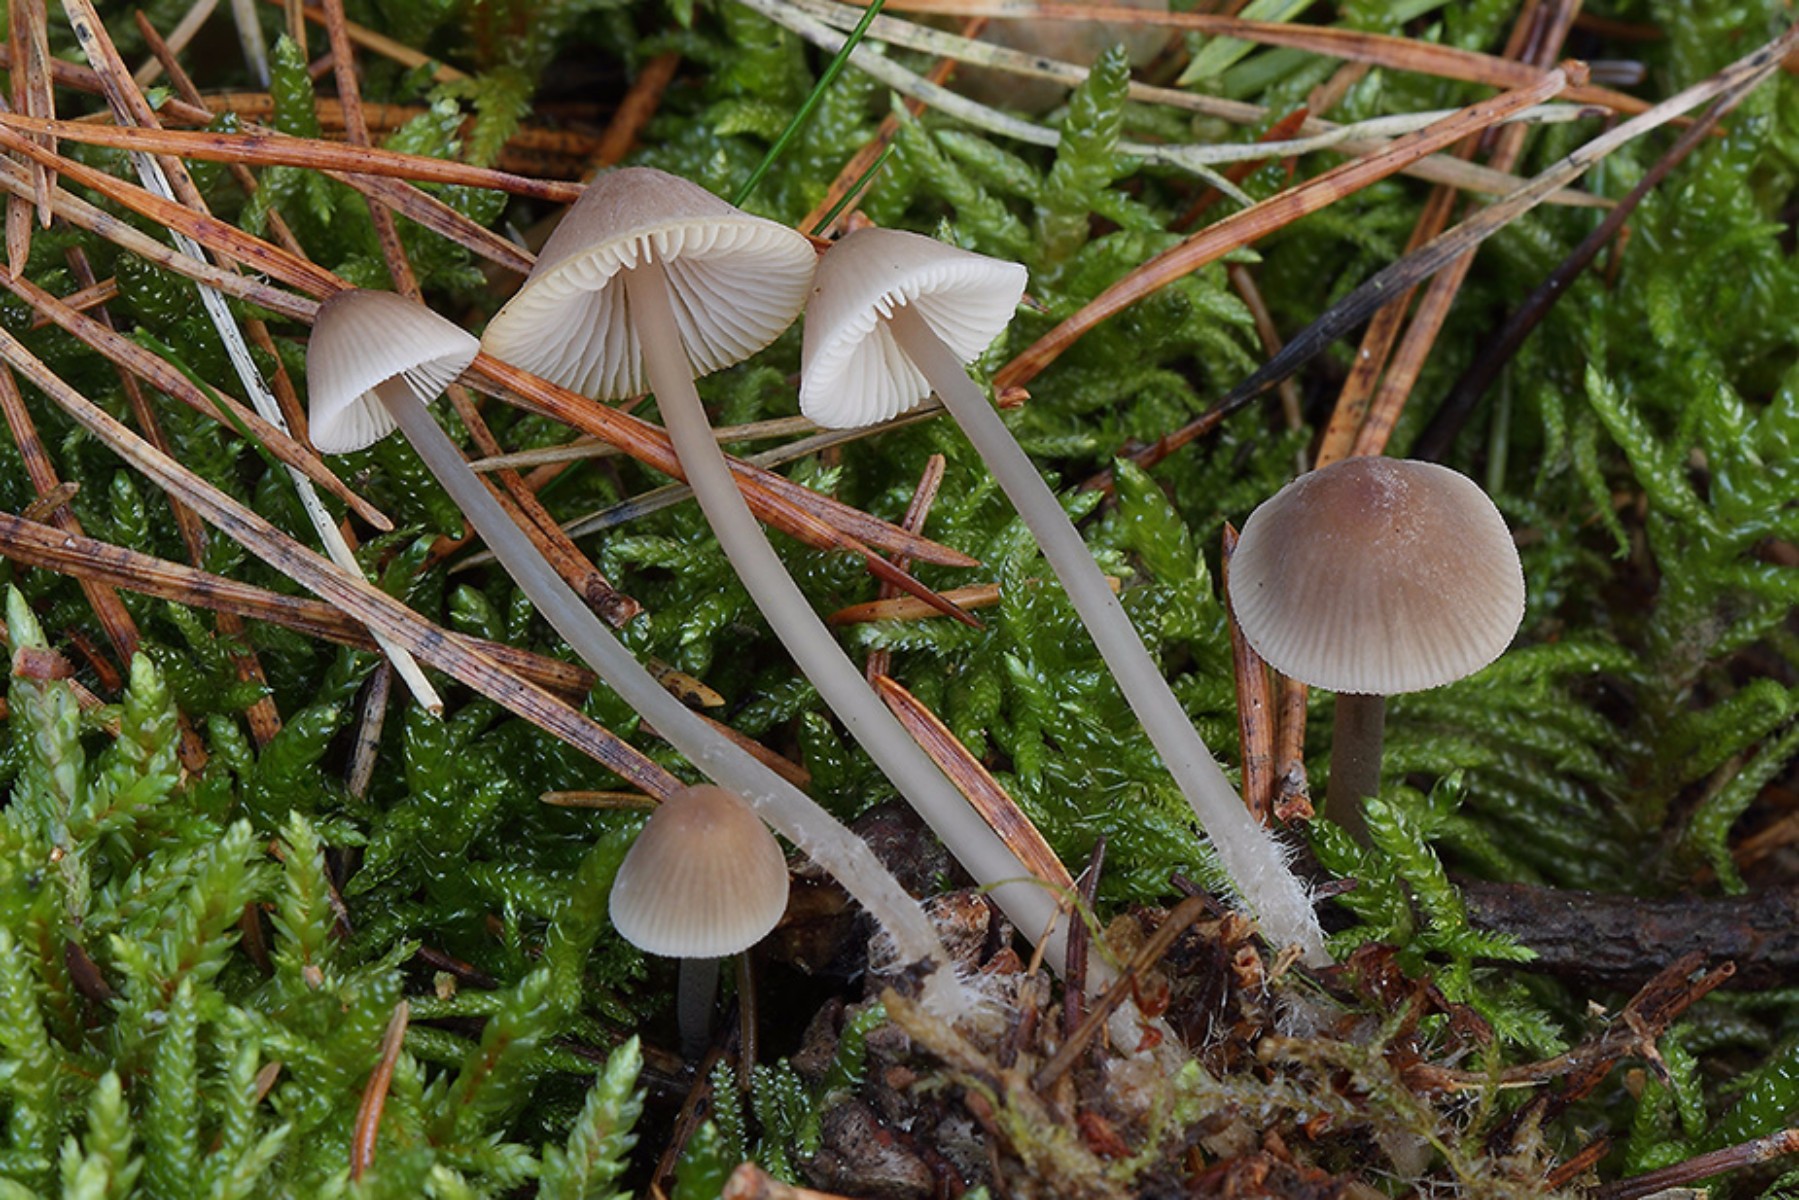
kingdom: Fungi
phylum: Basidiomycota
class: Agaricomycetes
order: Agaricales
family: Mycenaceae
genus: Mycena
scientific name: Mycena filopes
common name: jod-huesvamp
